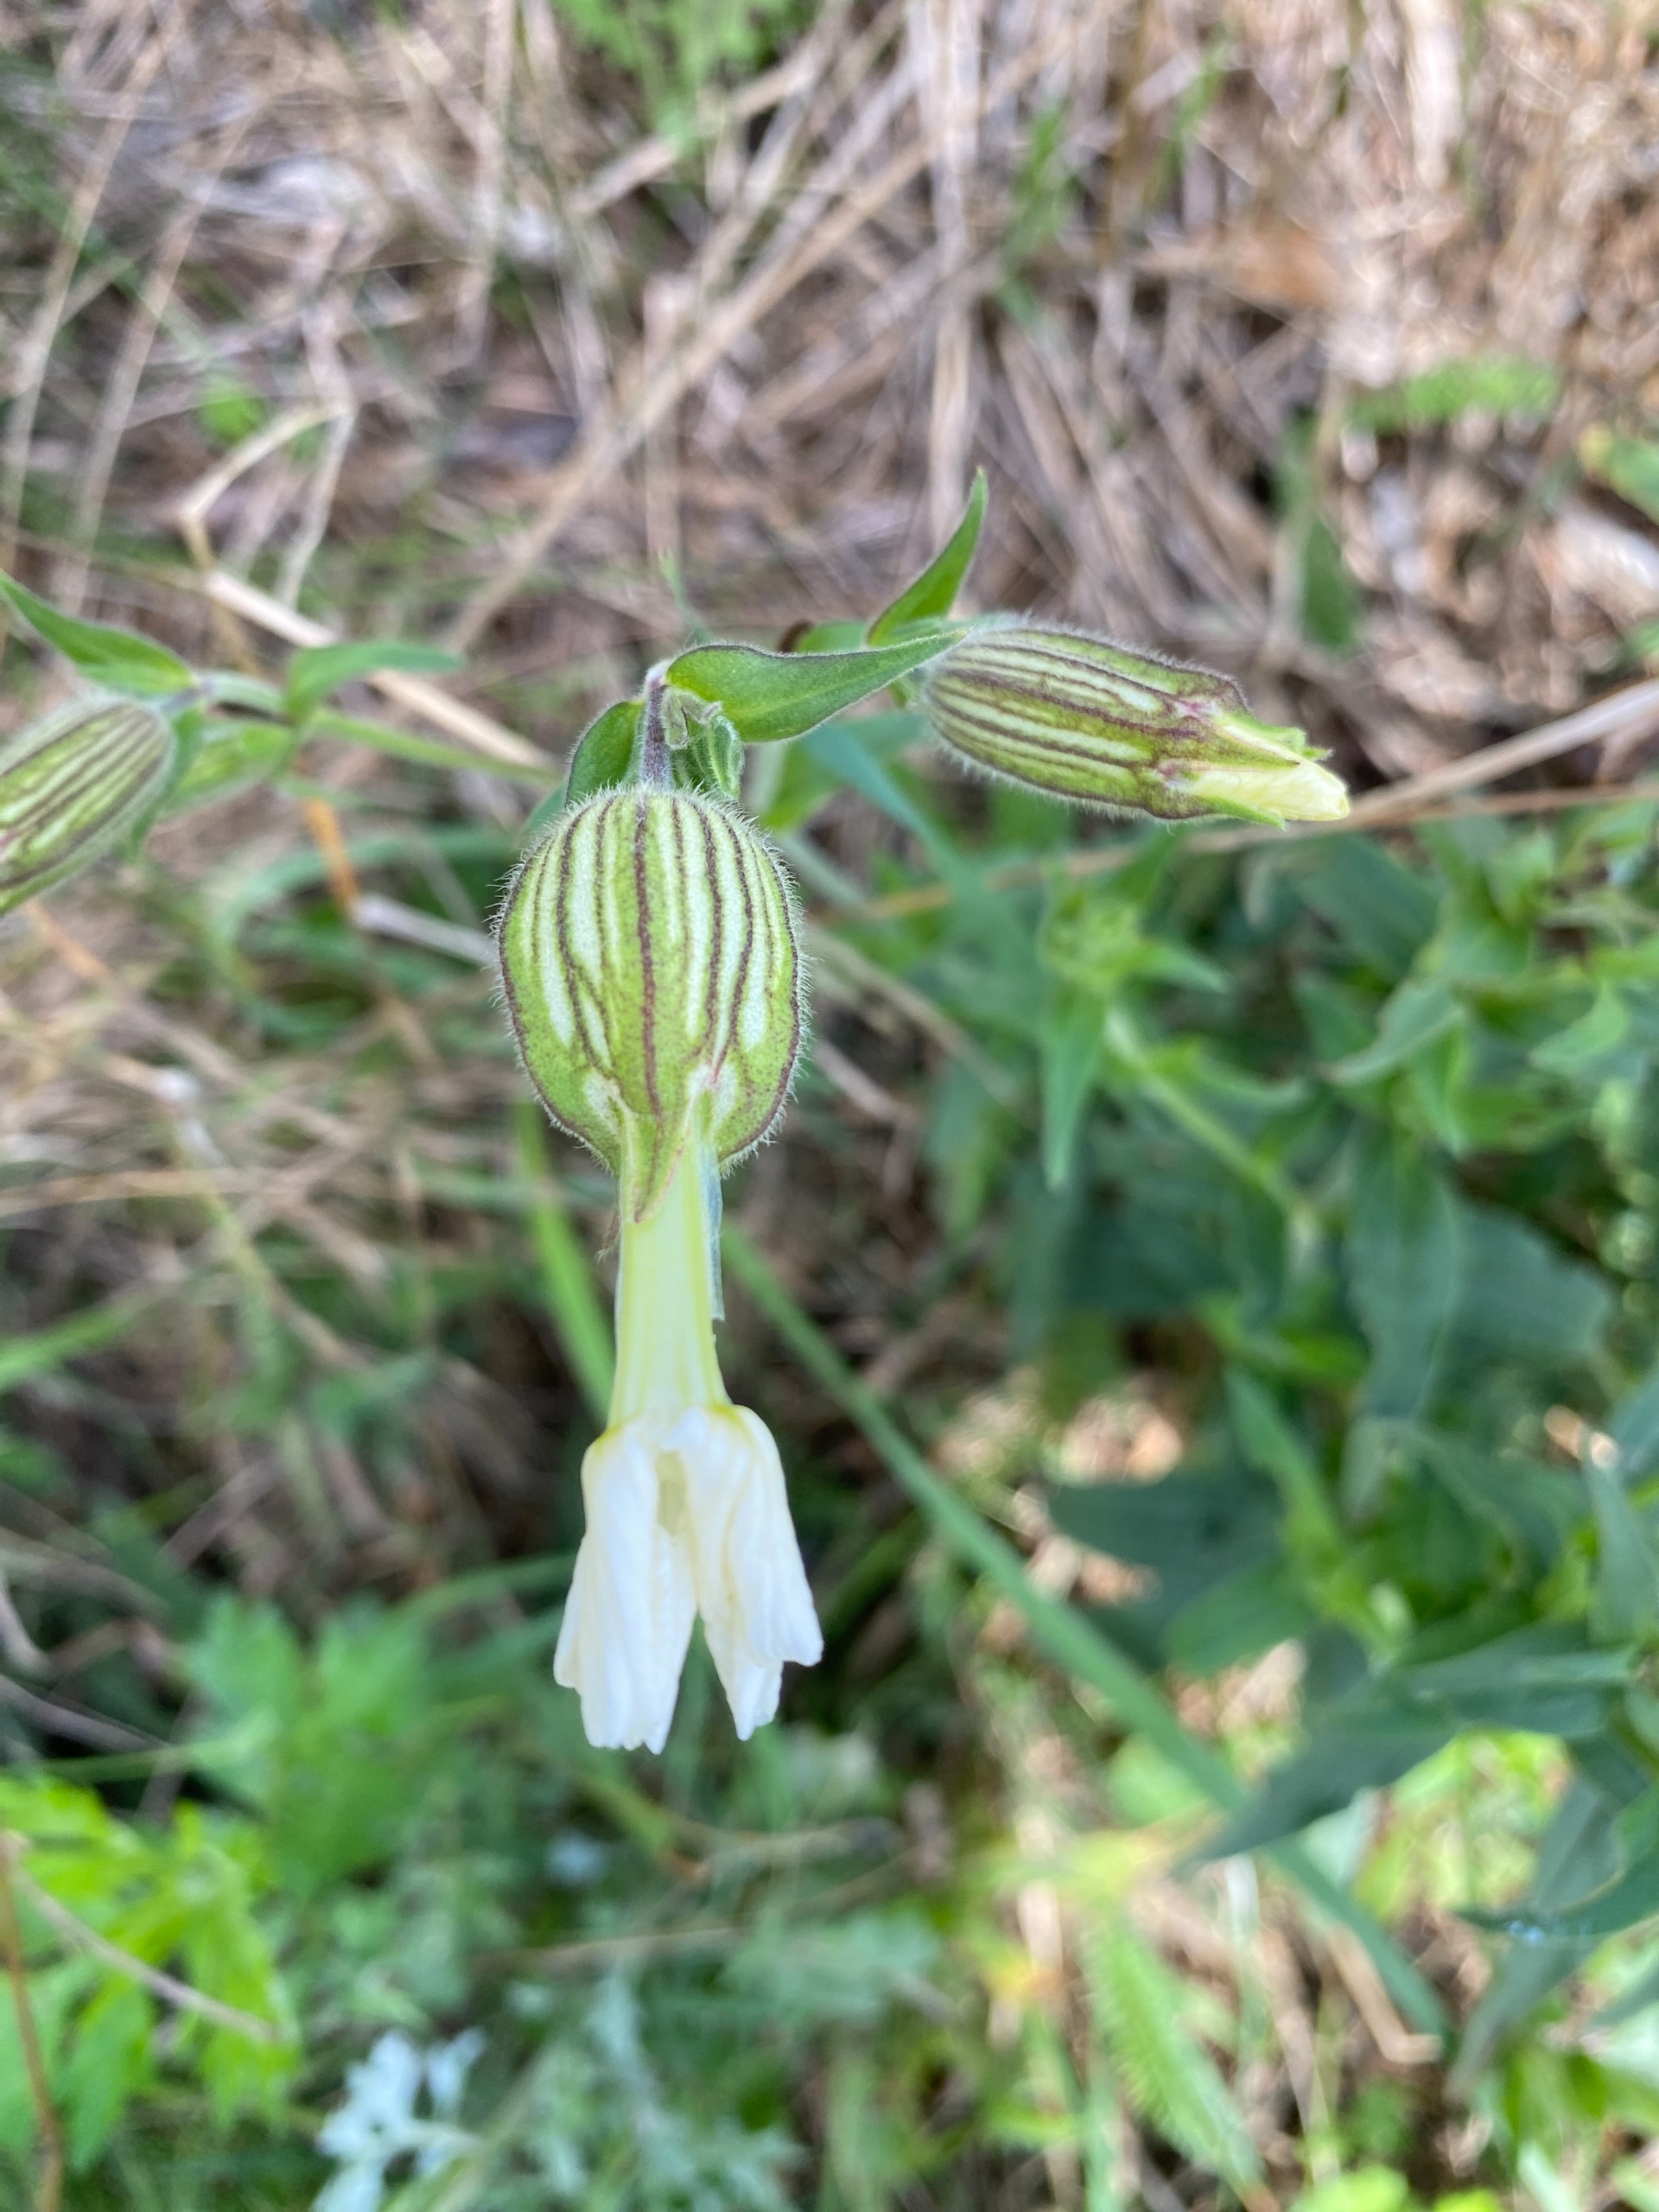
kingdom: Plantae
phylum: Tracheophyta
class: Magnoliopsida
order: Caryophyllales
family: Caryophyllaceae
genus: Silene
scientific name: Silene latifolia
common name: Aftenpragtstjerne
